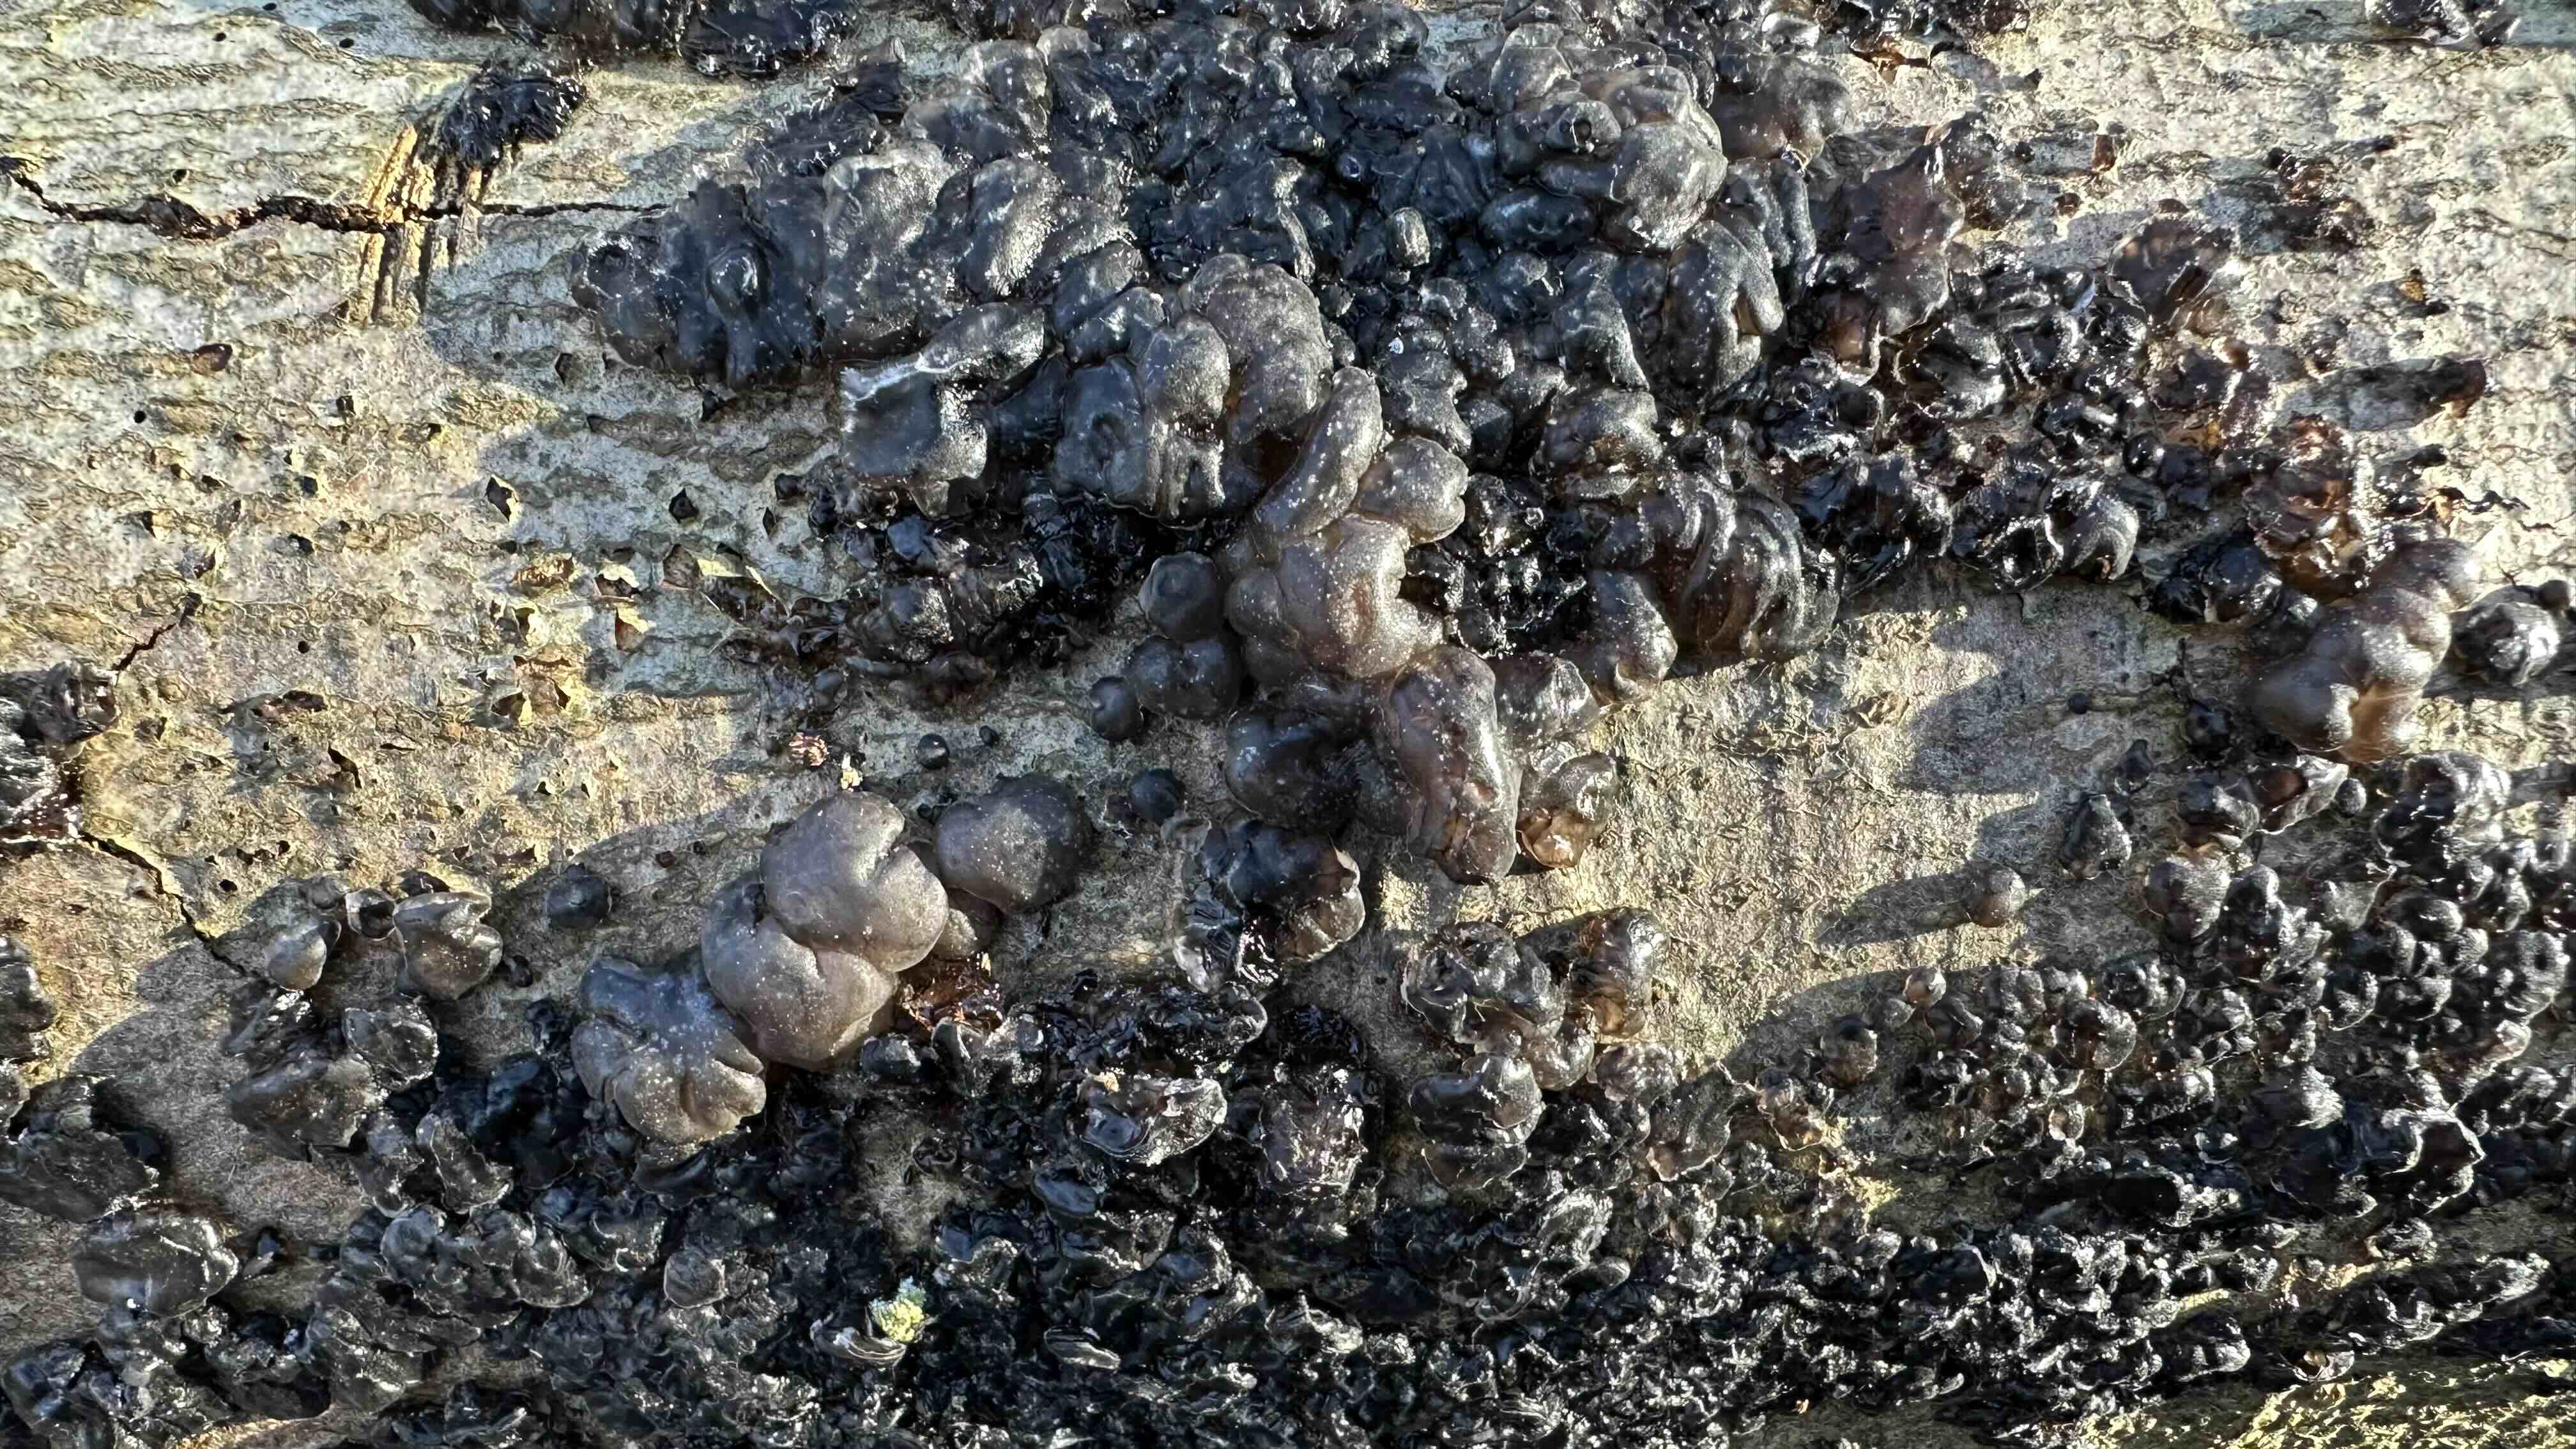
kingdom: Fungi
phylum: Basidiomycota
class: Agaricomycetes
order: Auriculariales
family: Auriculariaceae
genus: Exidia
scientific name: Exidia nigricans
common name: almindelig bævretop
